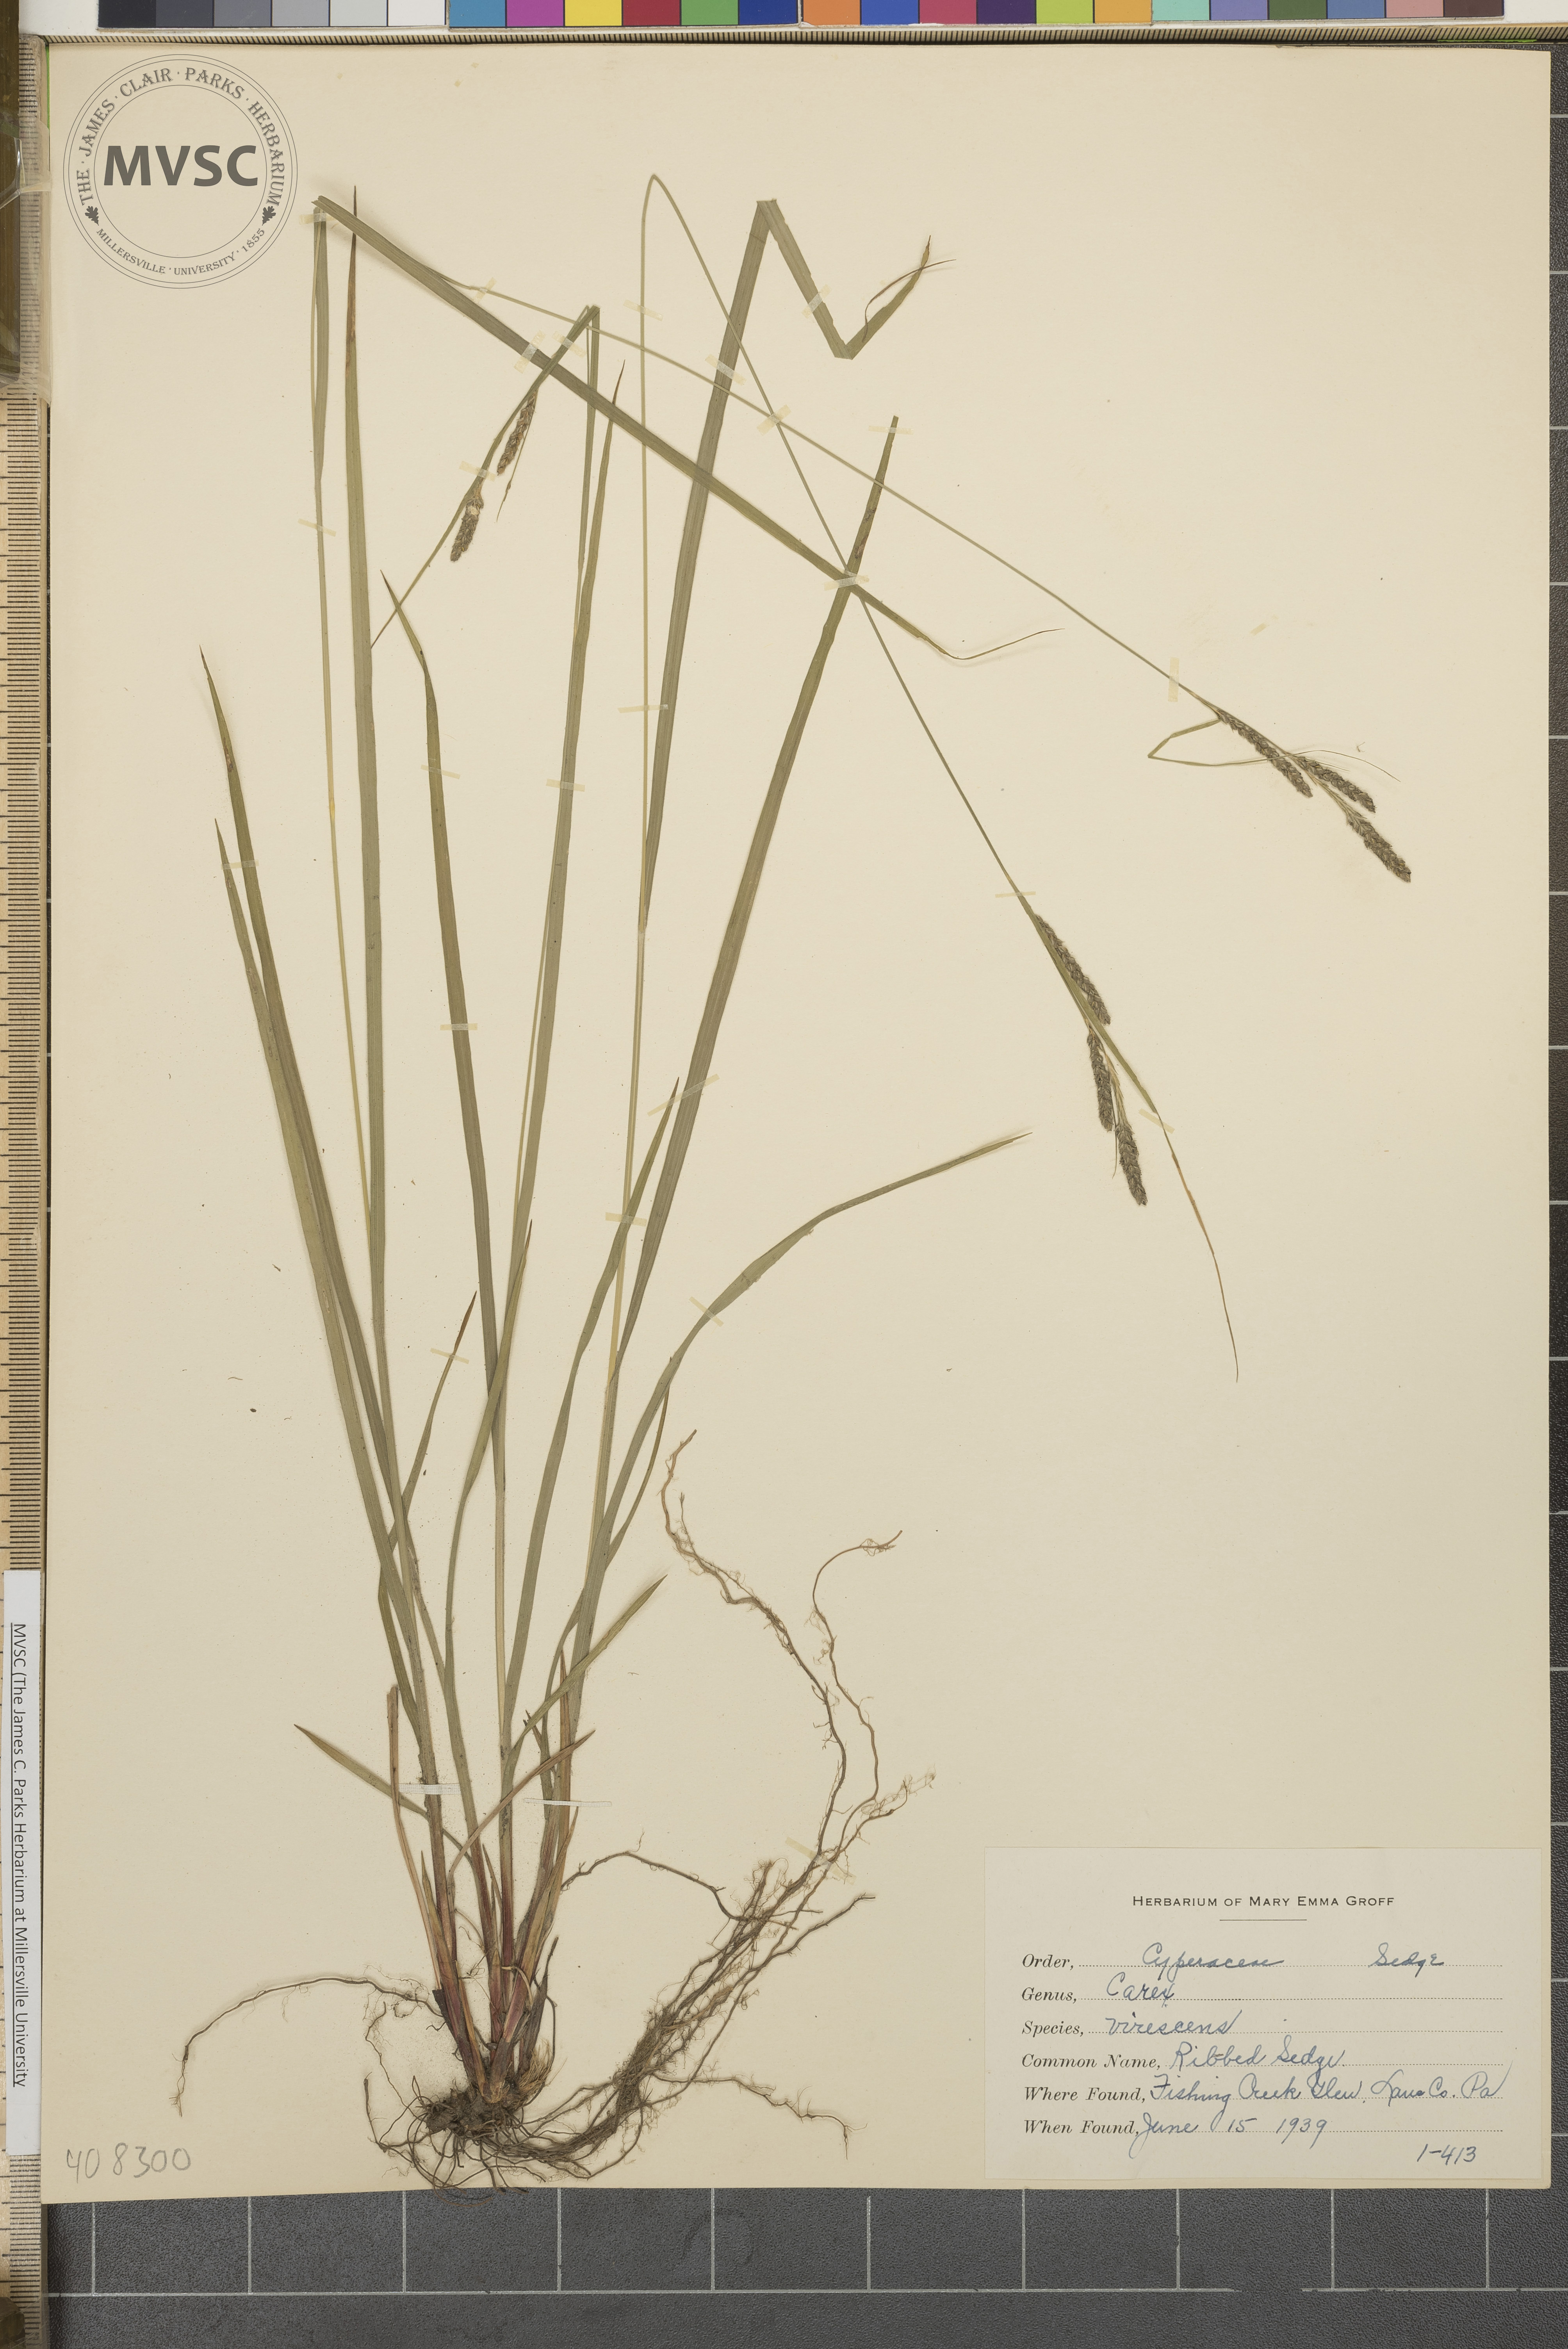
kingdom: Plantae
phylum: Tracheophyta
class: Liliopsida
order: Poales
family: Cyperaceae
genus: Carex
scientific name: Carex virescens
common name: Ribbed Sedge
